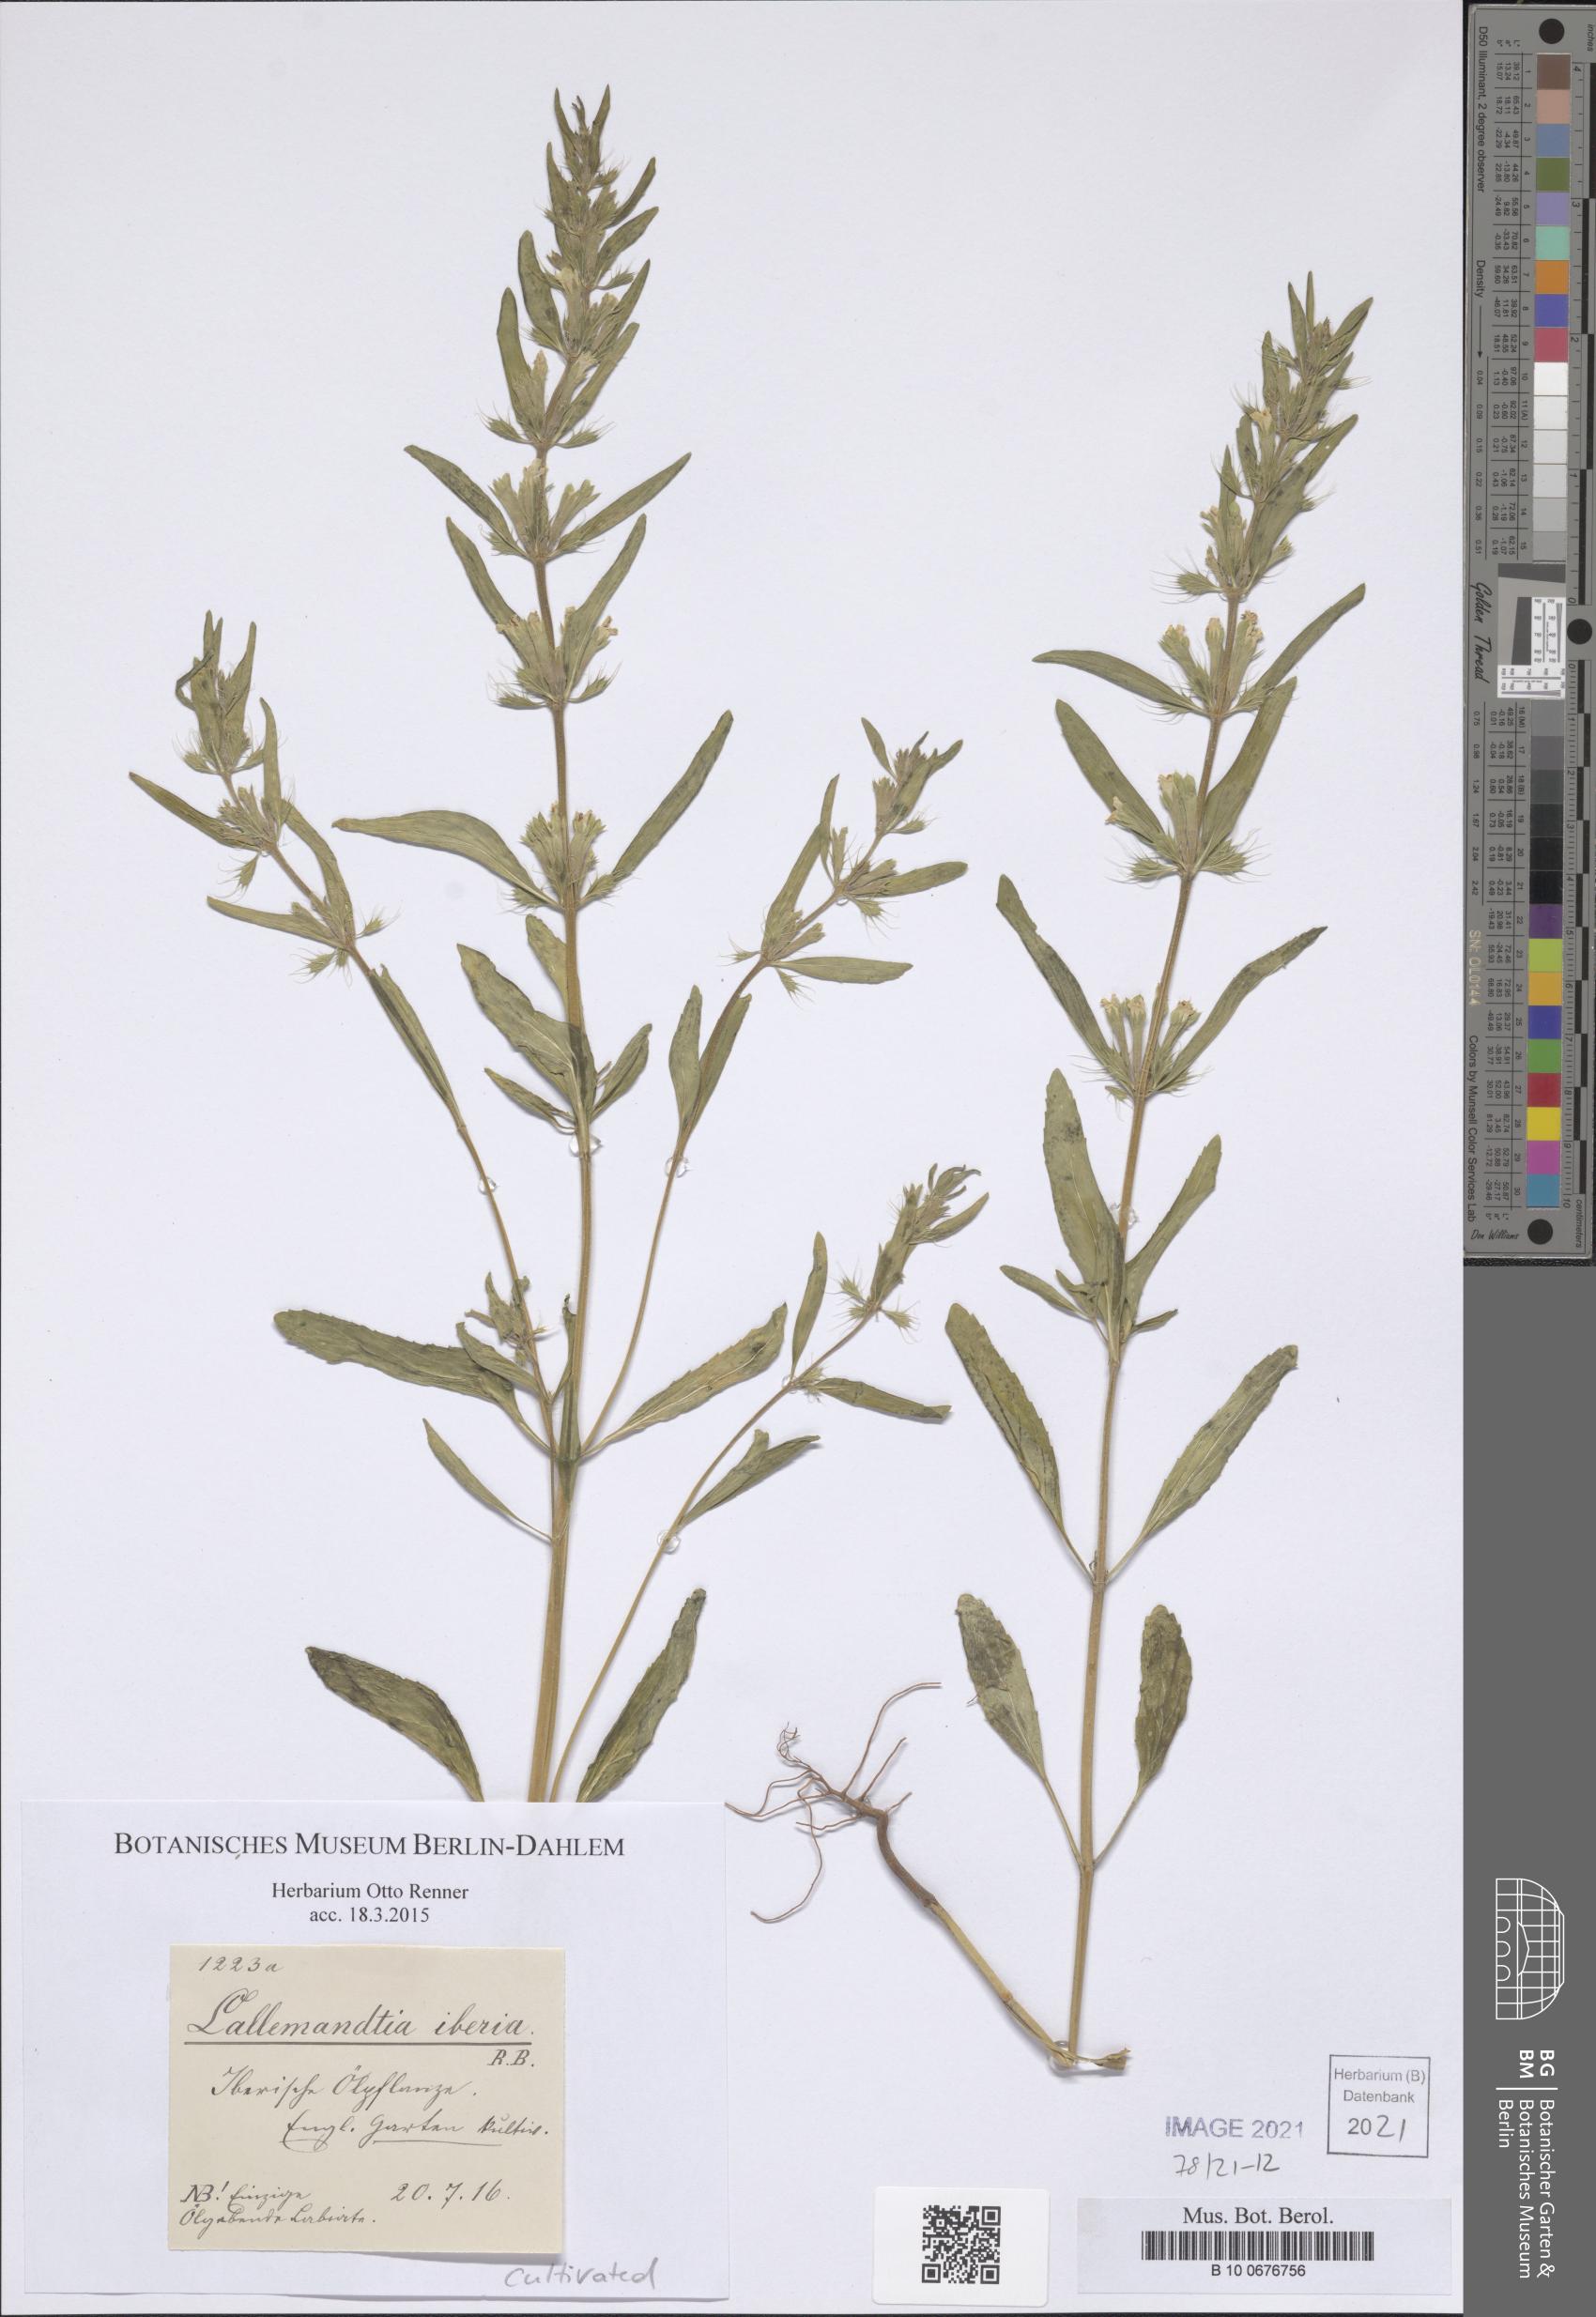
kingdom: Plantae
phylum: Tracheophyta
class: Magnoliopsida
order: Lamiales
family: Lamiaceae
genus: Lallemantia
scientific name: Lallemantia iberica
